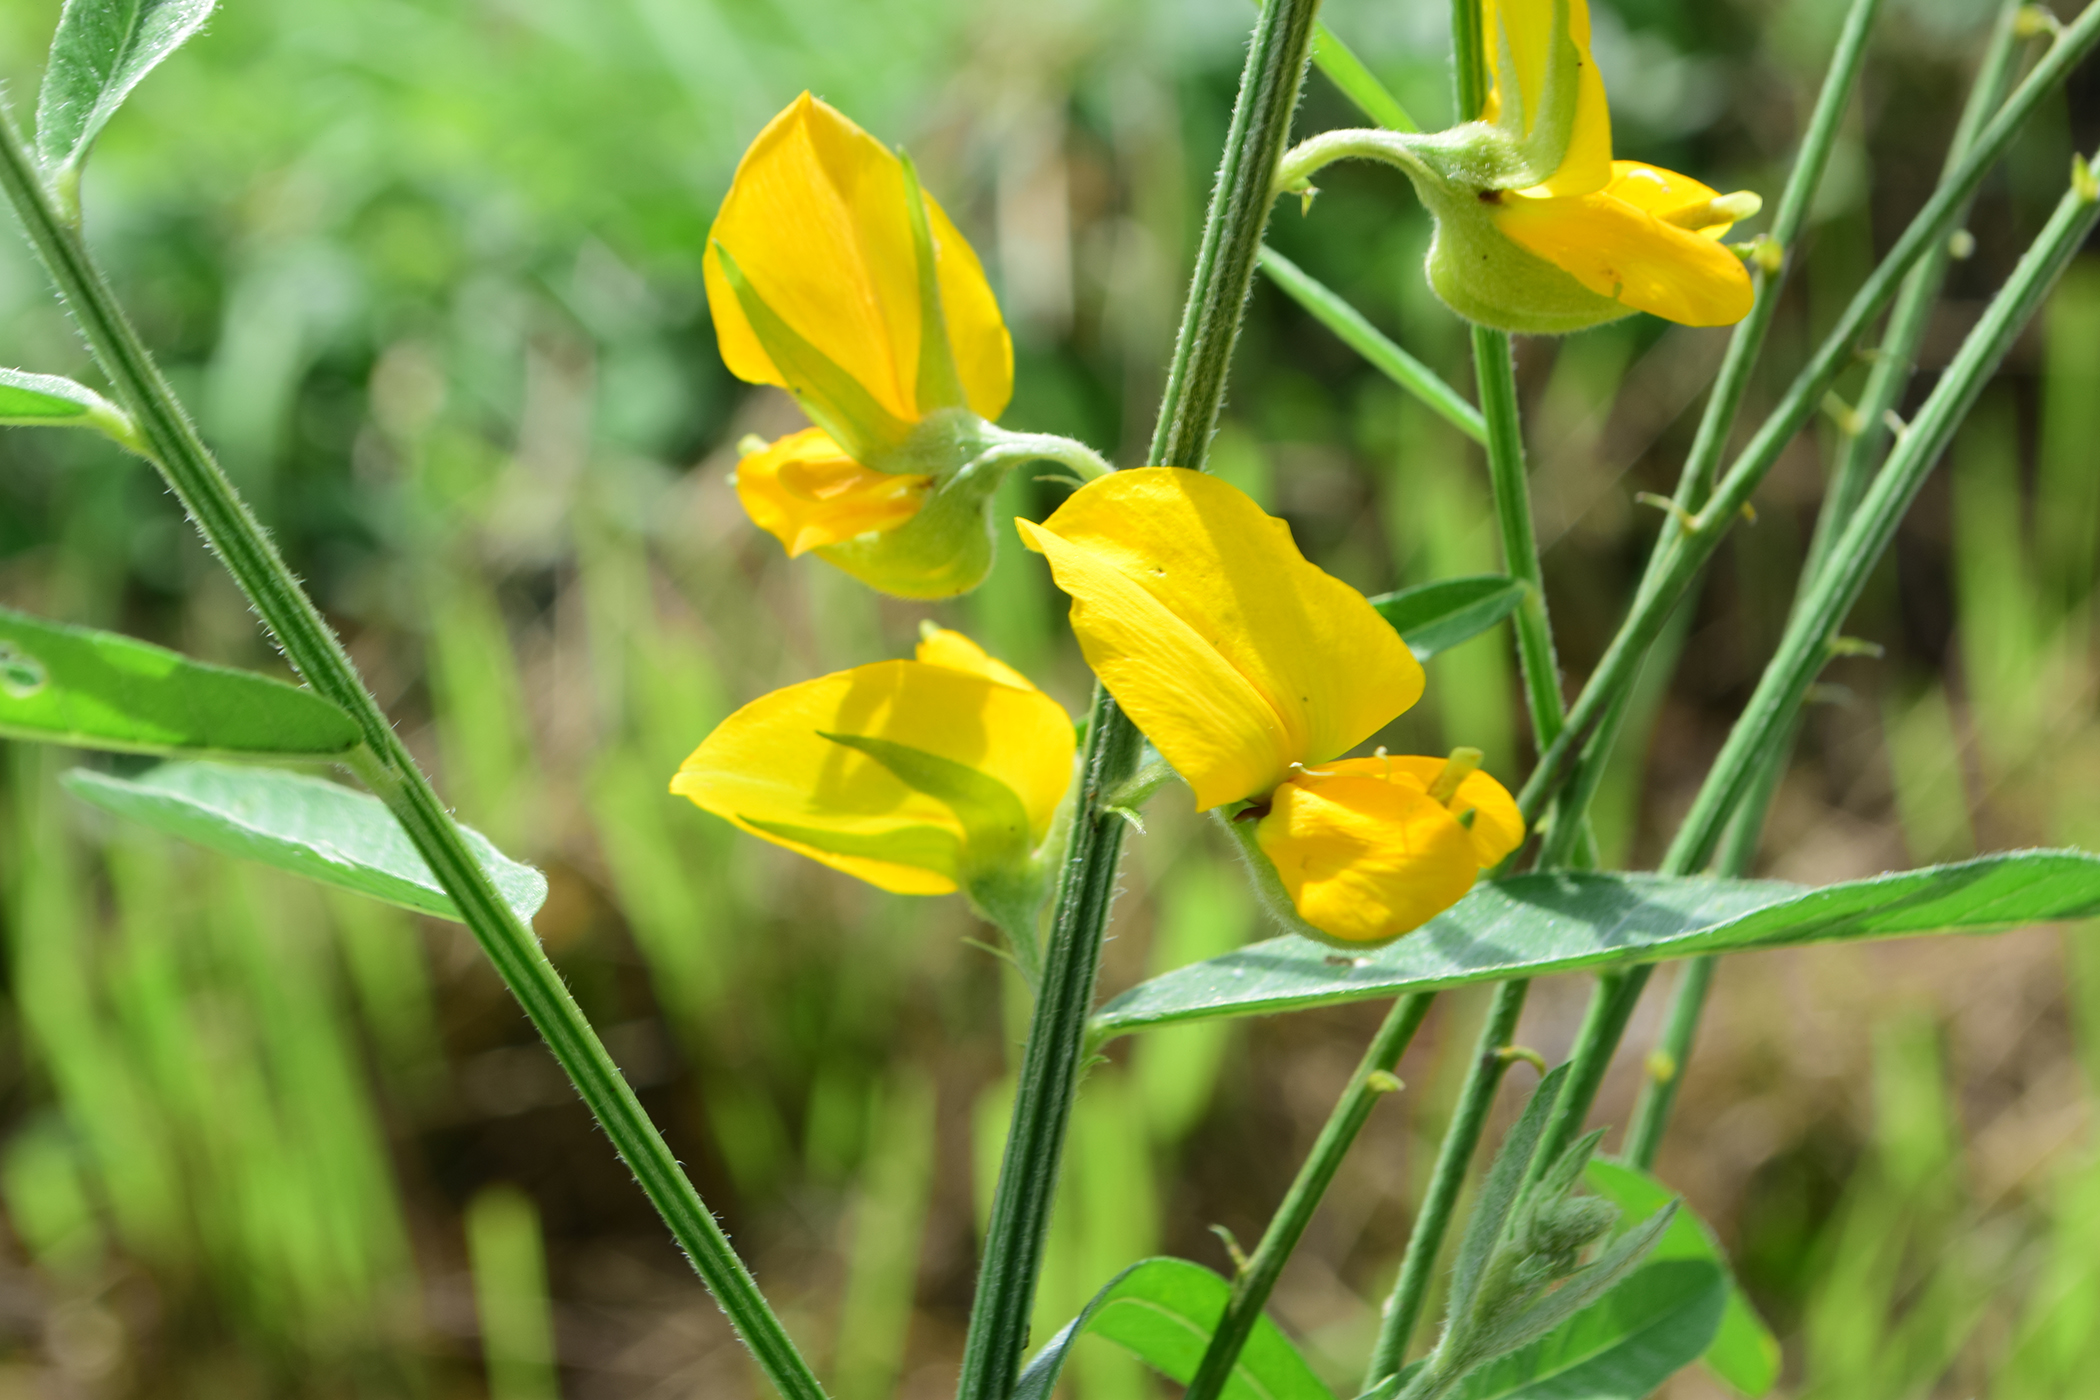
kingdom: Plantae
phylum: Tracheophyta
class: Magnoliopsida
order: Fabales
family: Fabaceae
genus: Crotalaria
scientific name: Crotalaria juncea
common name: Sunn hemp
